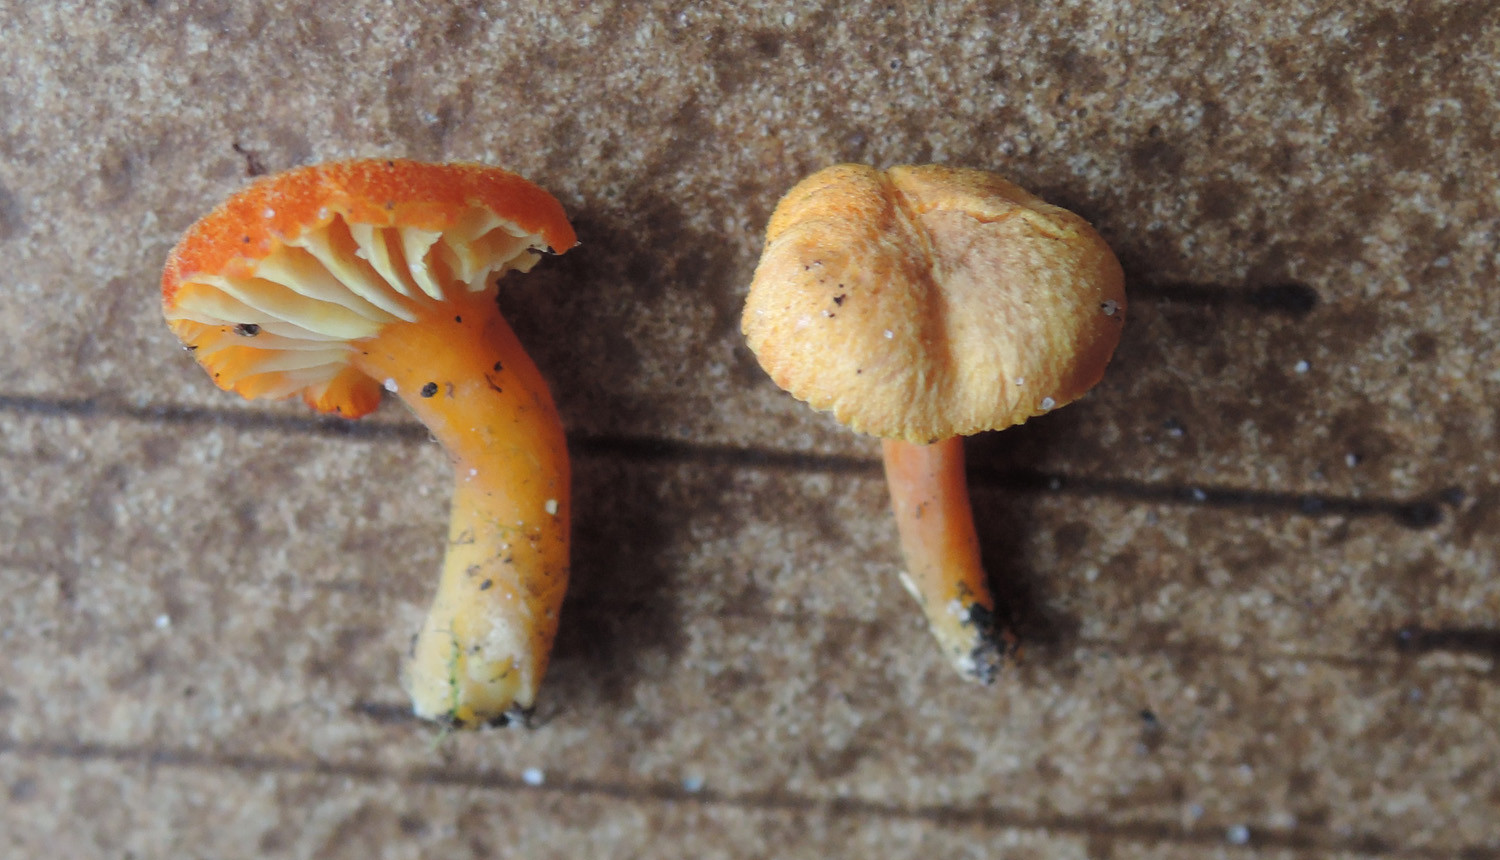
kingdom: Fungi
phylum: Basidiomycota
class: Agaricomycetes
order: Agaricales
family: Hygrophoraceae
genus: Hygrocybe
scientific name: Hygrocybe cantharellus
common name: kantarel-vokshat
